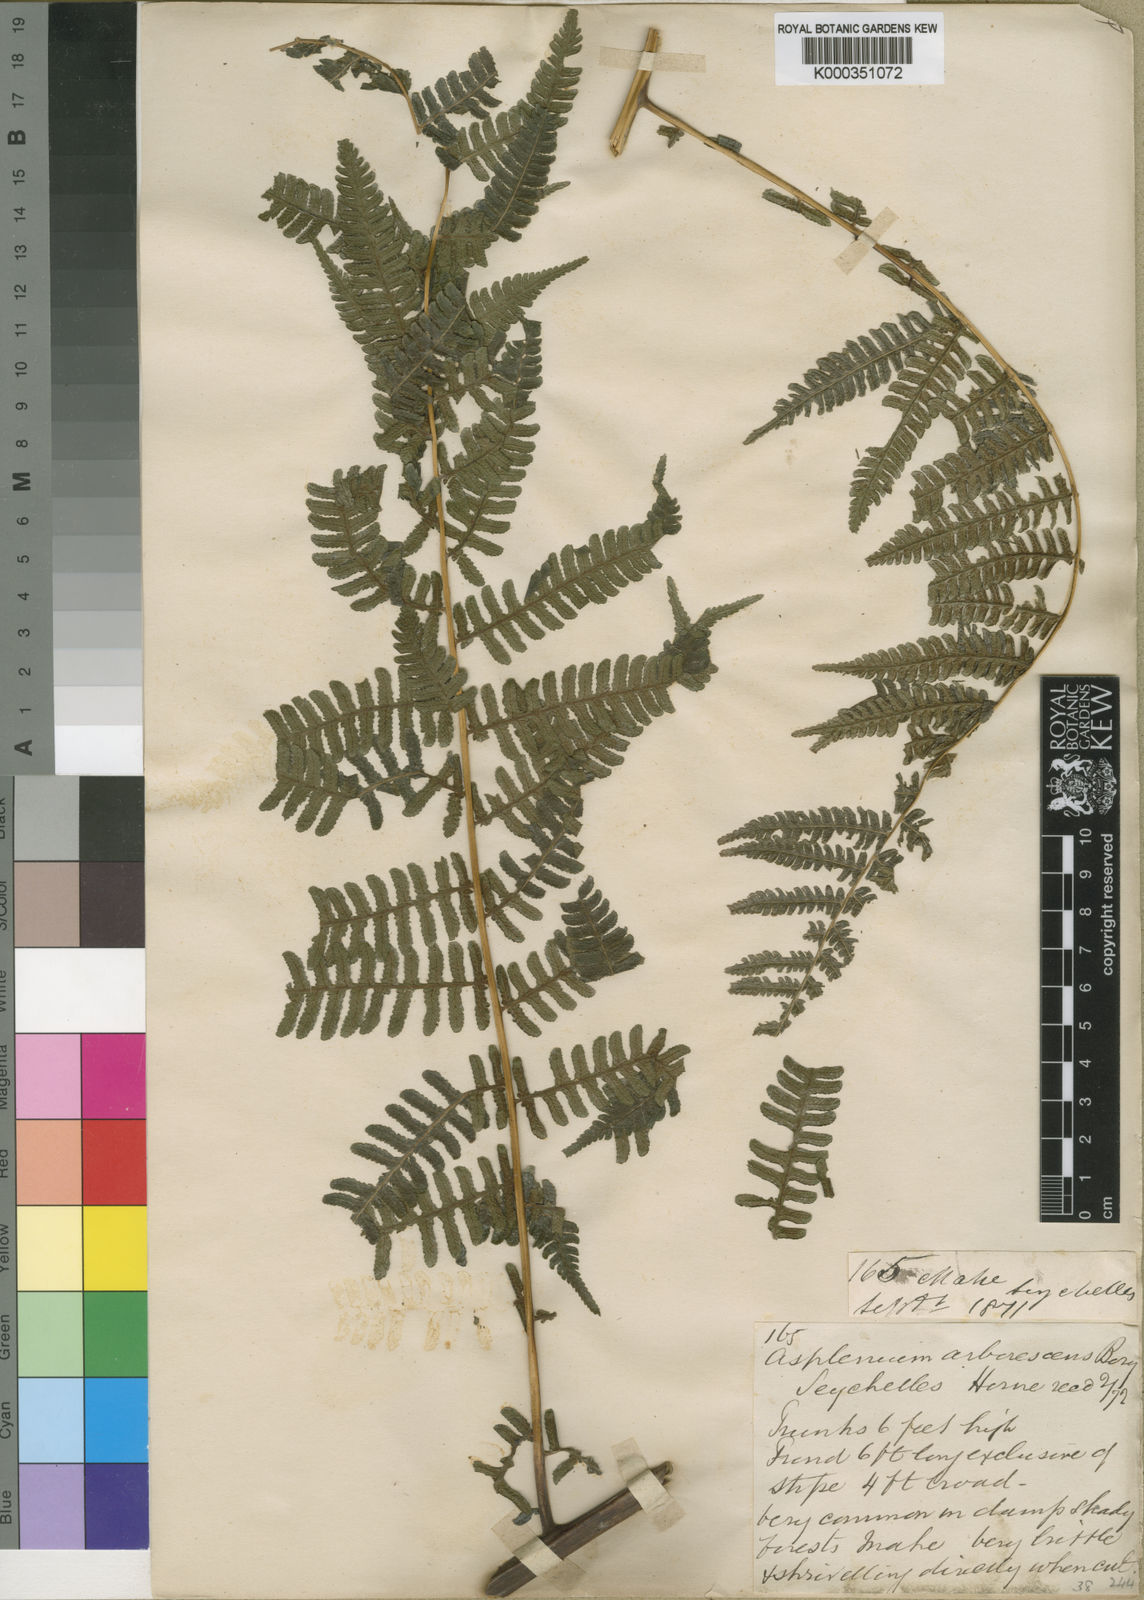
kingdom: Plantae
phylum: Tracheophyta
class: Polypodiopsida
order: Polypodiales
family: Athyriaceae
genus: Diplazium
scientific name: Diplazium polypodioides
